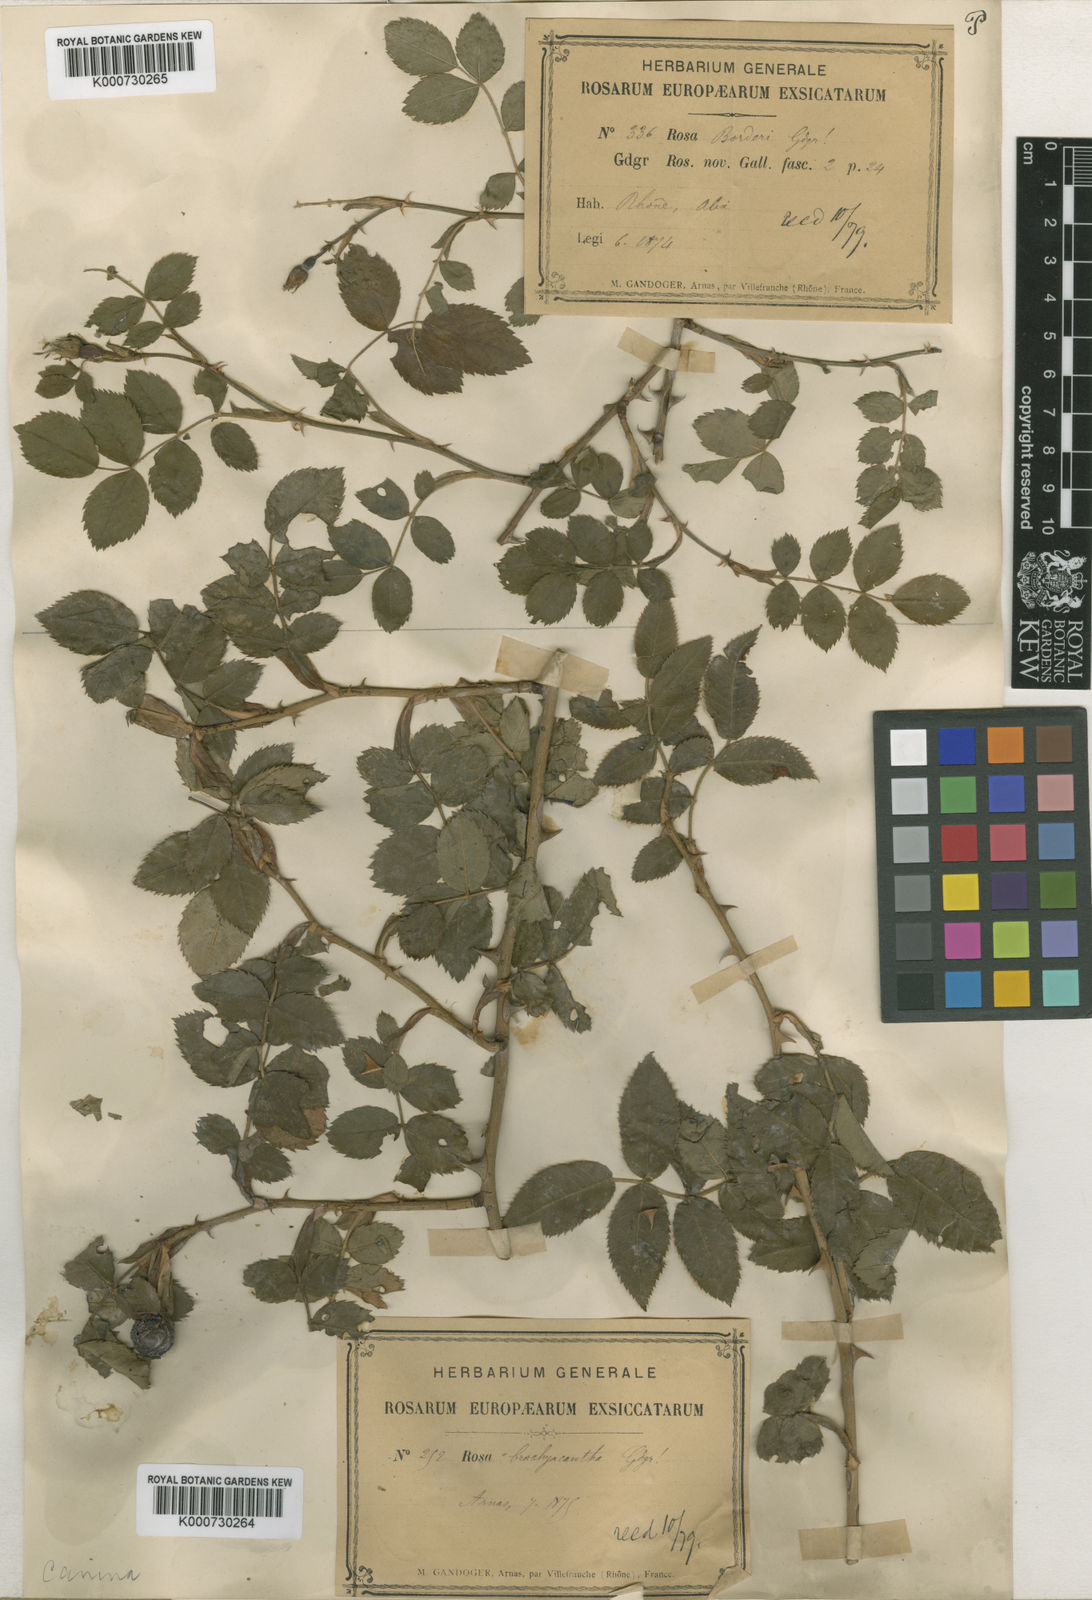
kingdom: Plantae
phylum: Tracheophyta
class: Magnoliopsida
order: Rosales
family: Rosaceae
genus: Rosa
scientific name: Rosa canina
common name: Dog rose
